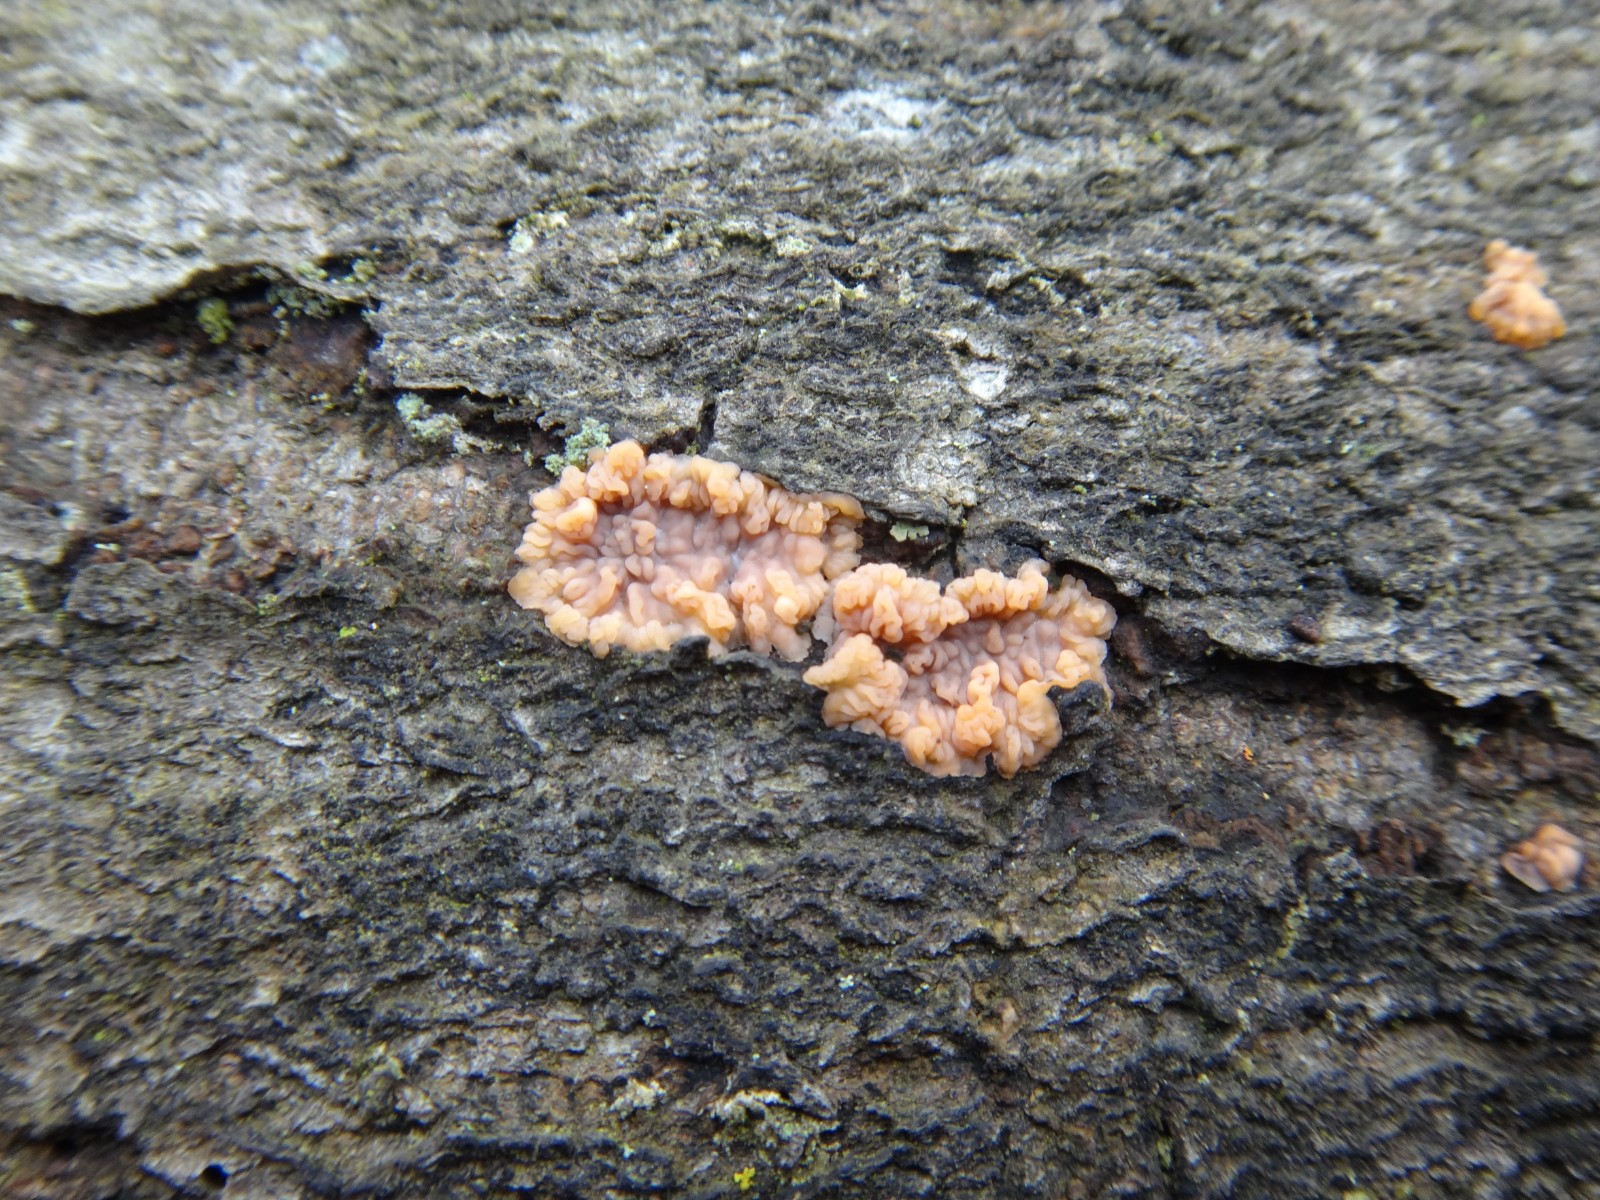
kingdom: Fungi
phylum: Basidiomycota
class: Agaricomycetes
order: Polyporales
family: Meruliaceae
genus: Phlebia
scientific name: Phlebia radiata
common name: stråle-åresvamp
